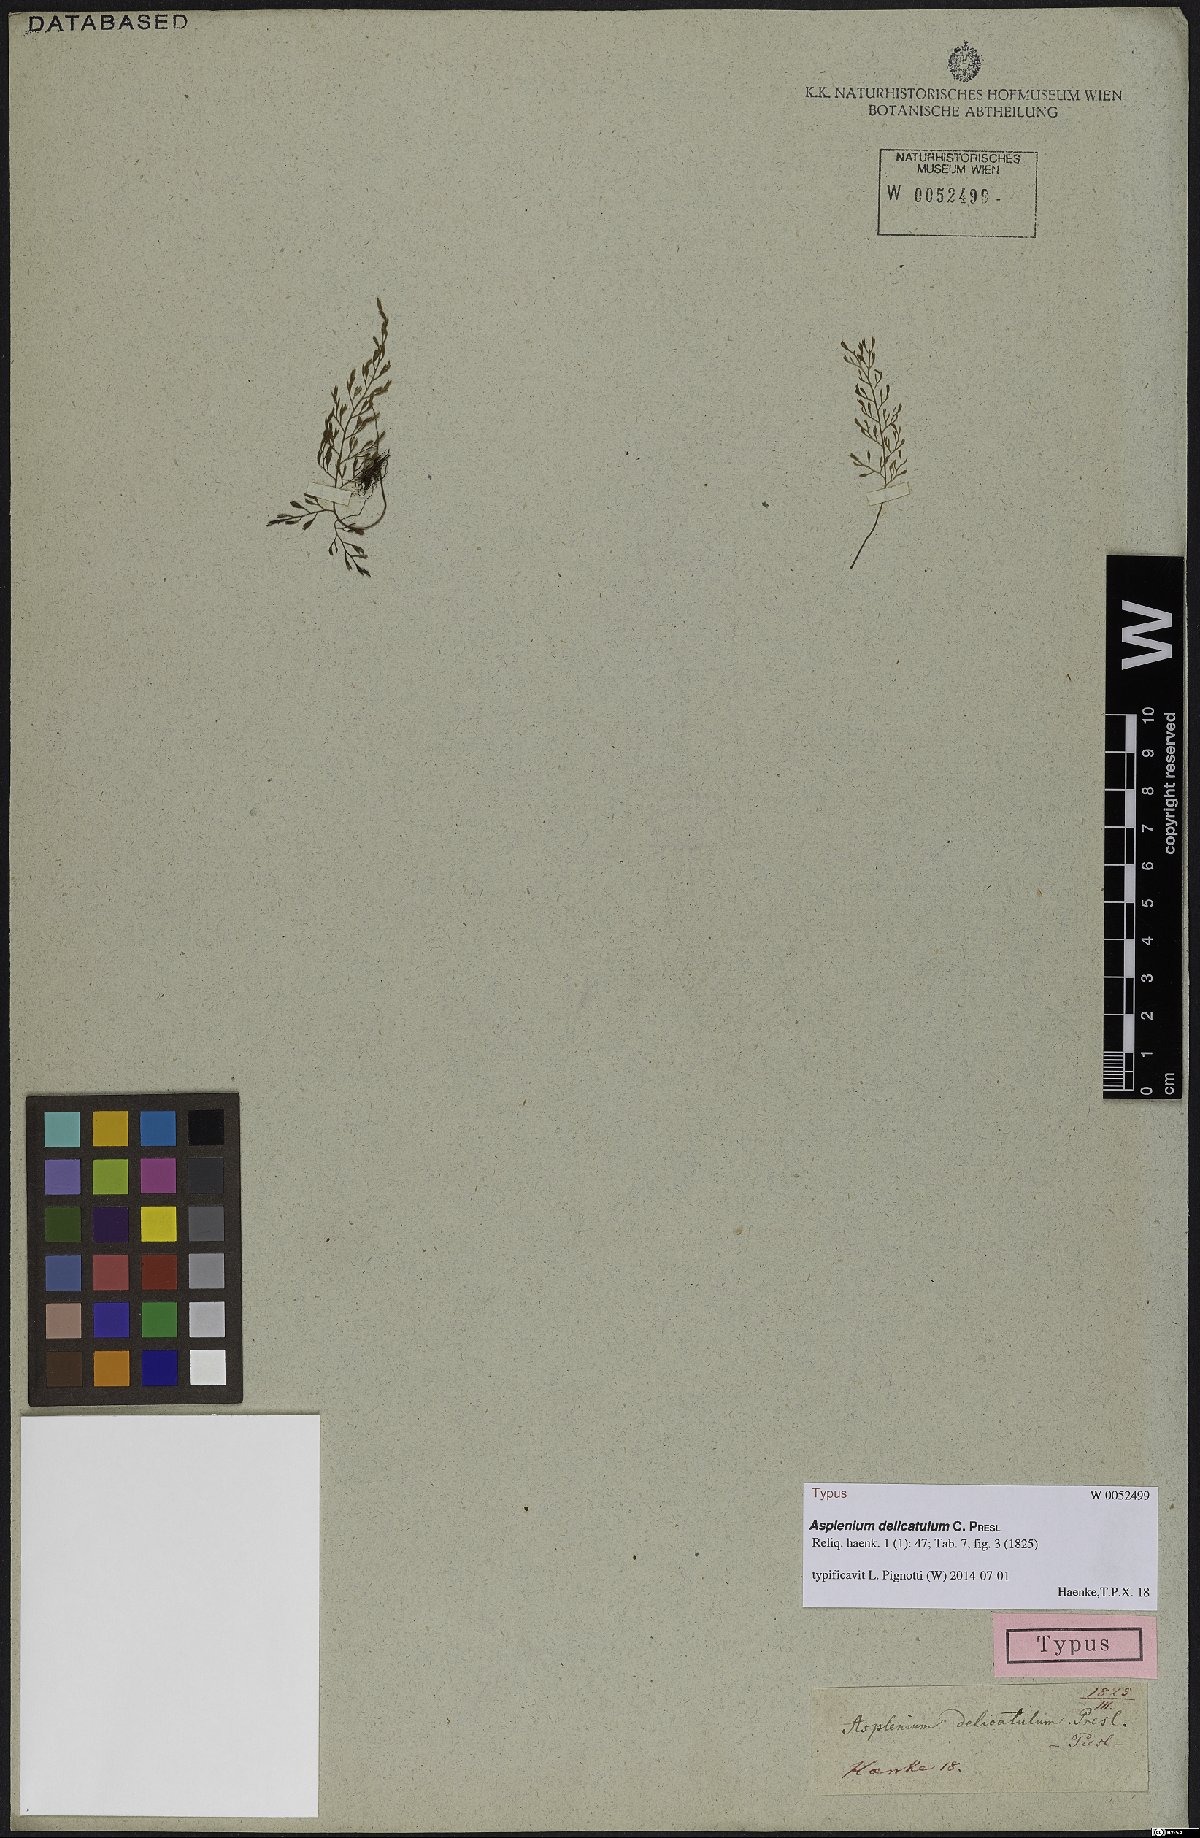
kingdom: Plantae
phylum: Tracheophyta
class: Polypodiopsida
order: Polypodiales
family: Aspleniaceae
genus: Asplenium
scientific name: Asplenium delicatulum
